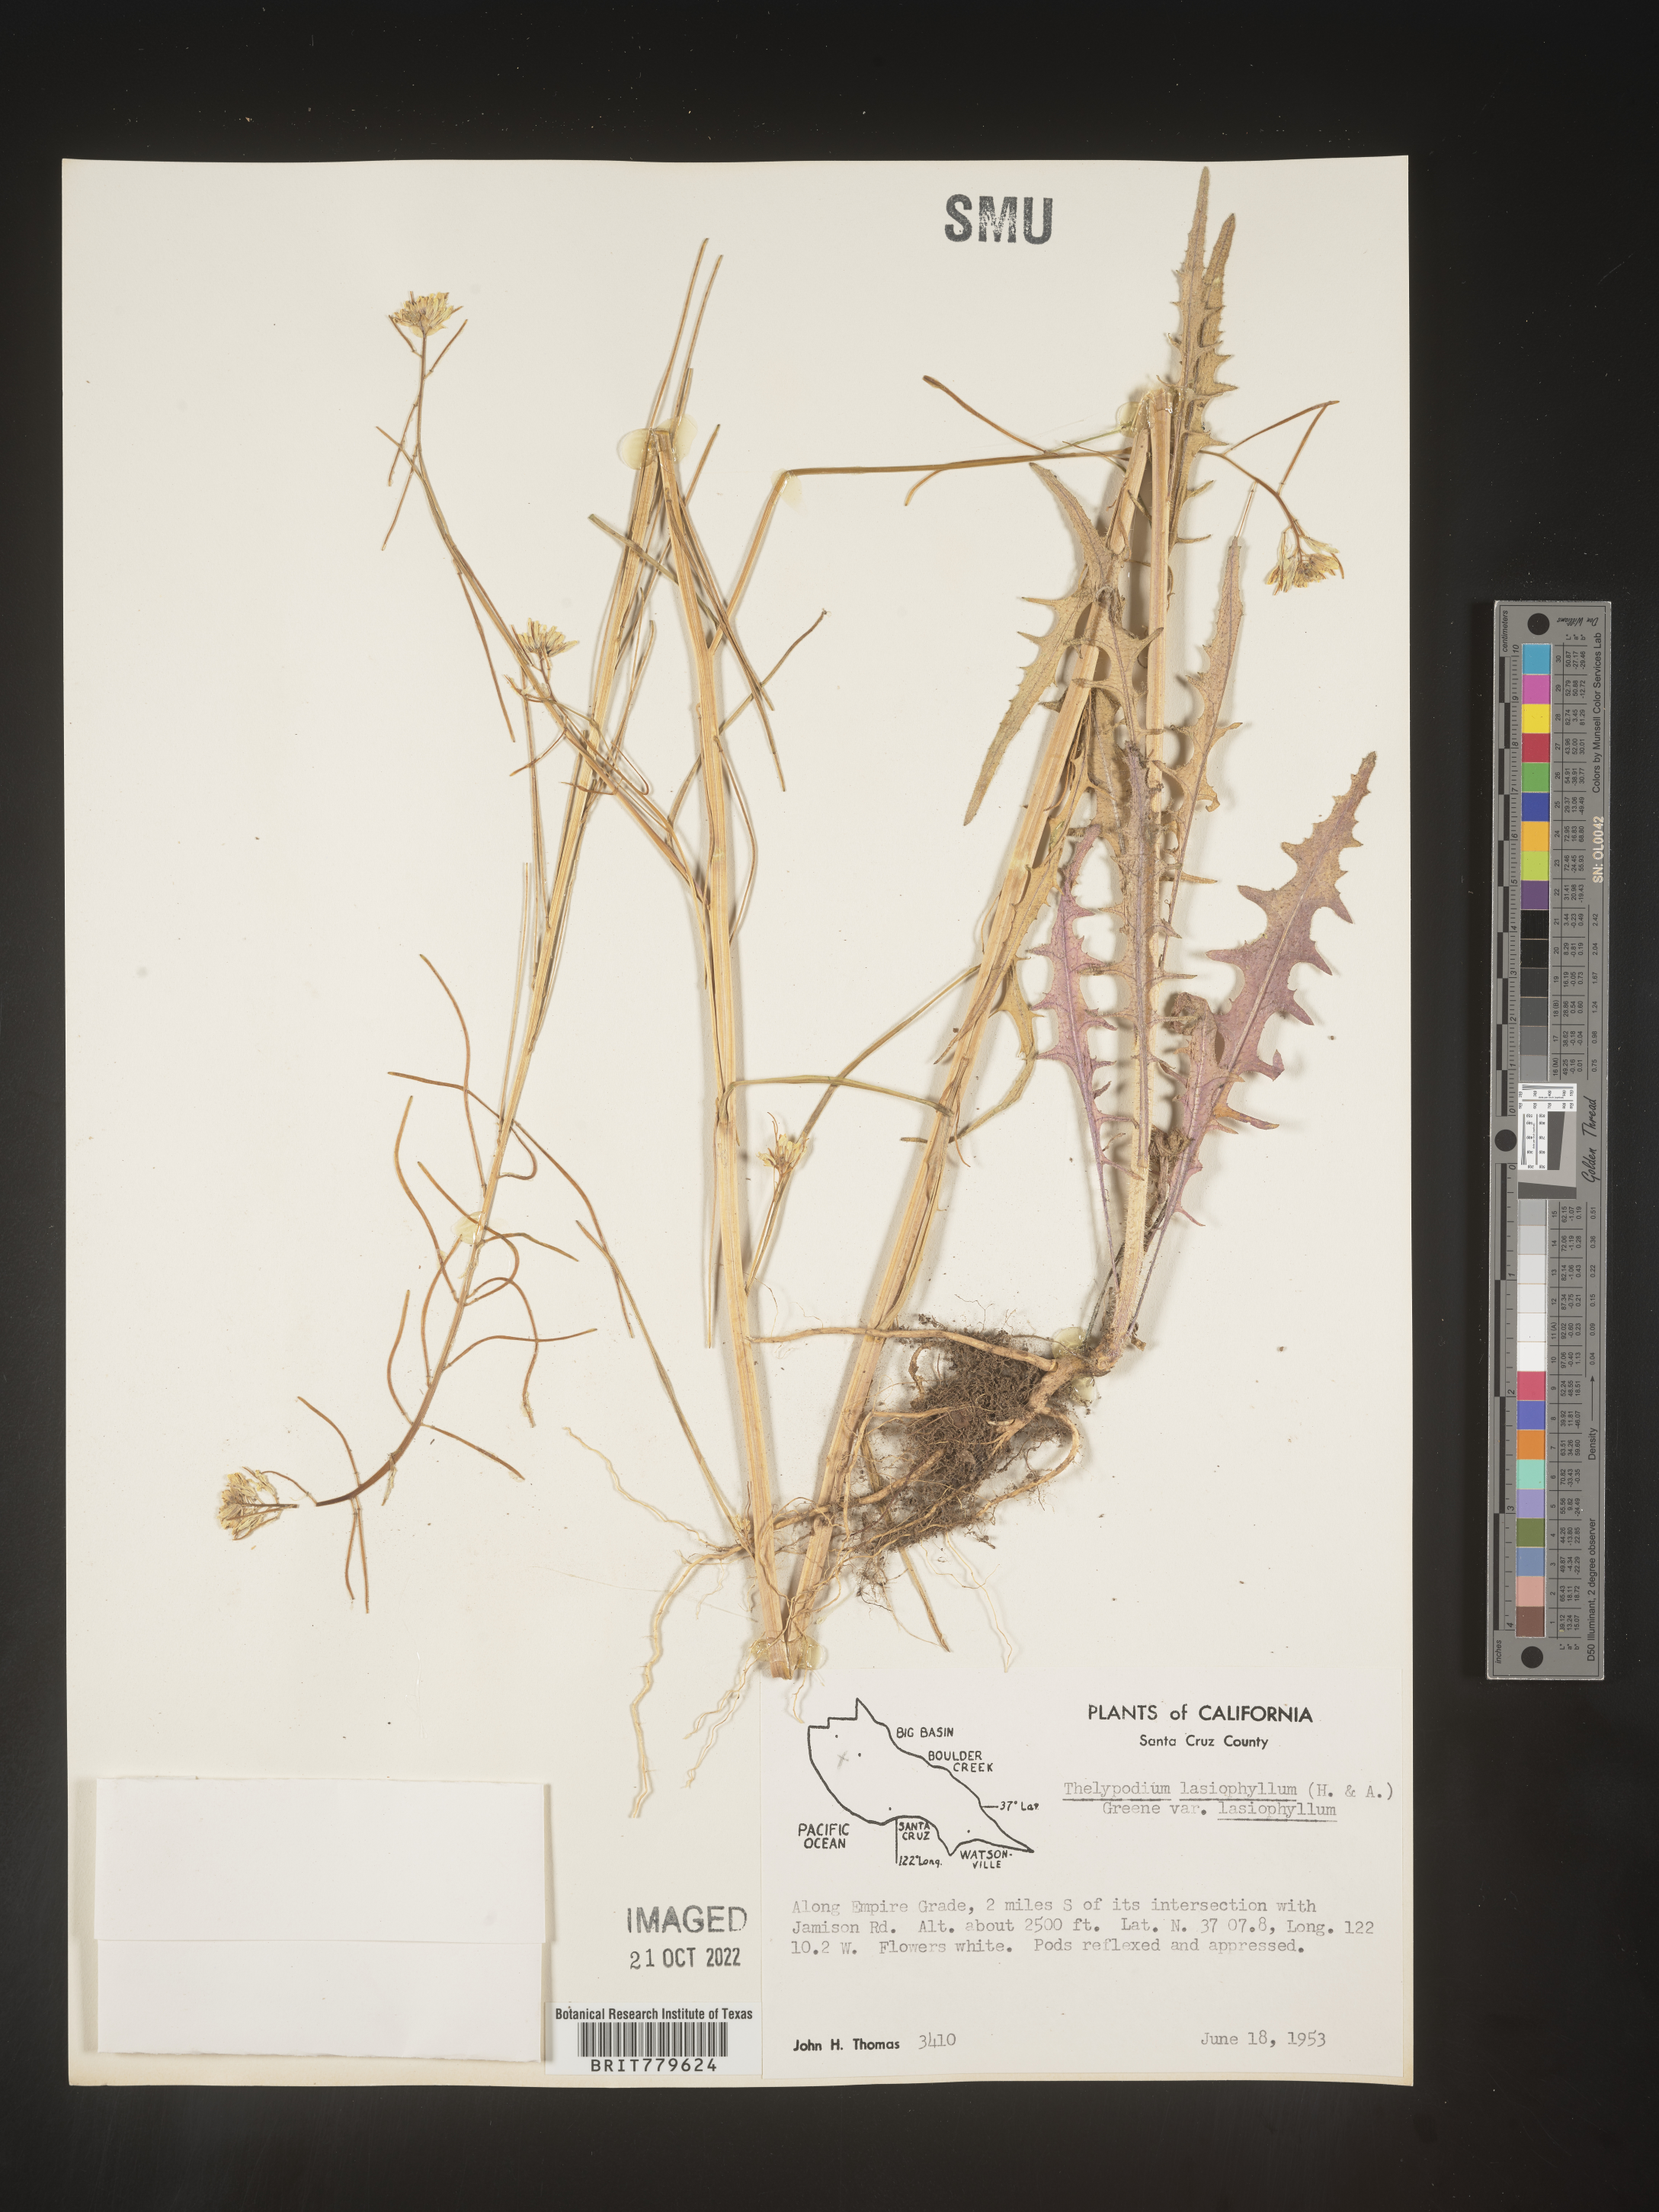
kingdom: Plantae
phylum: Tracheophyta
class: Magnoliopsida
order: Brassicales
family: Brassicaceae
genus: Thelypodium
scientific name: Thelypodium
